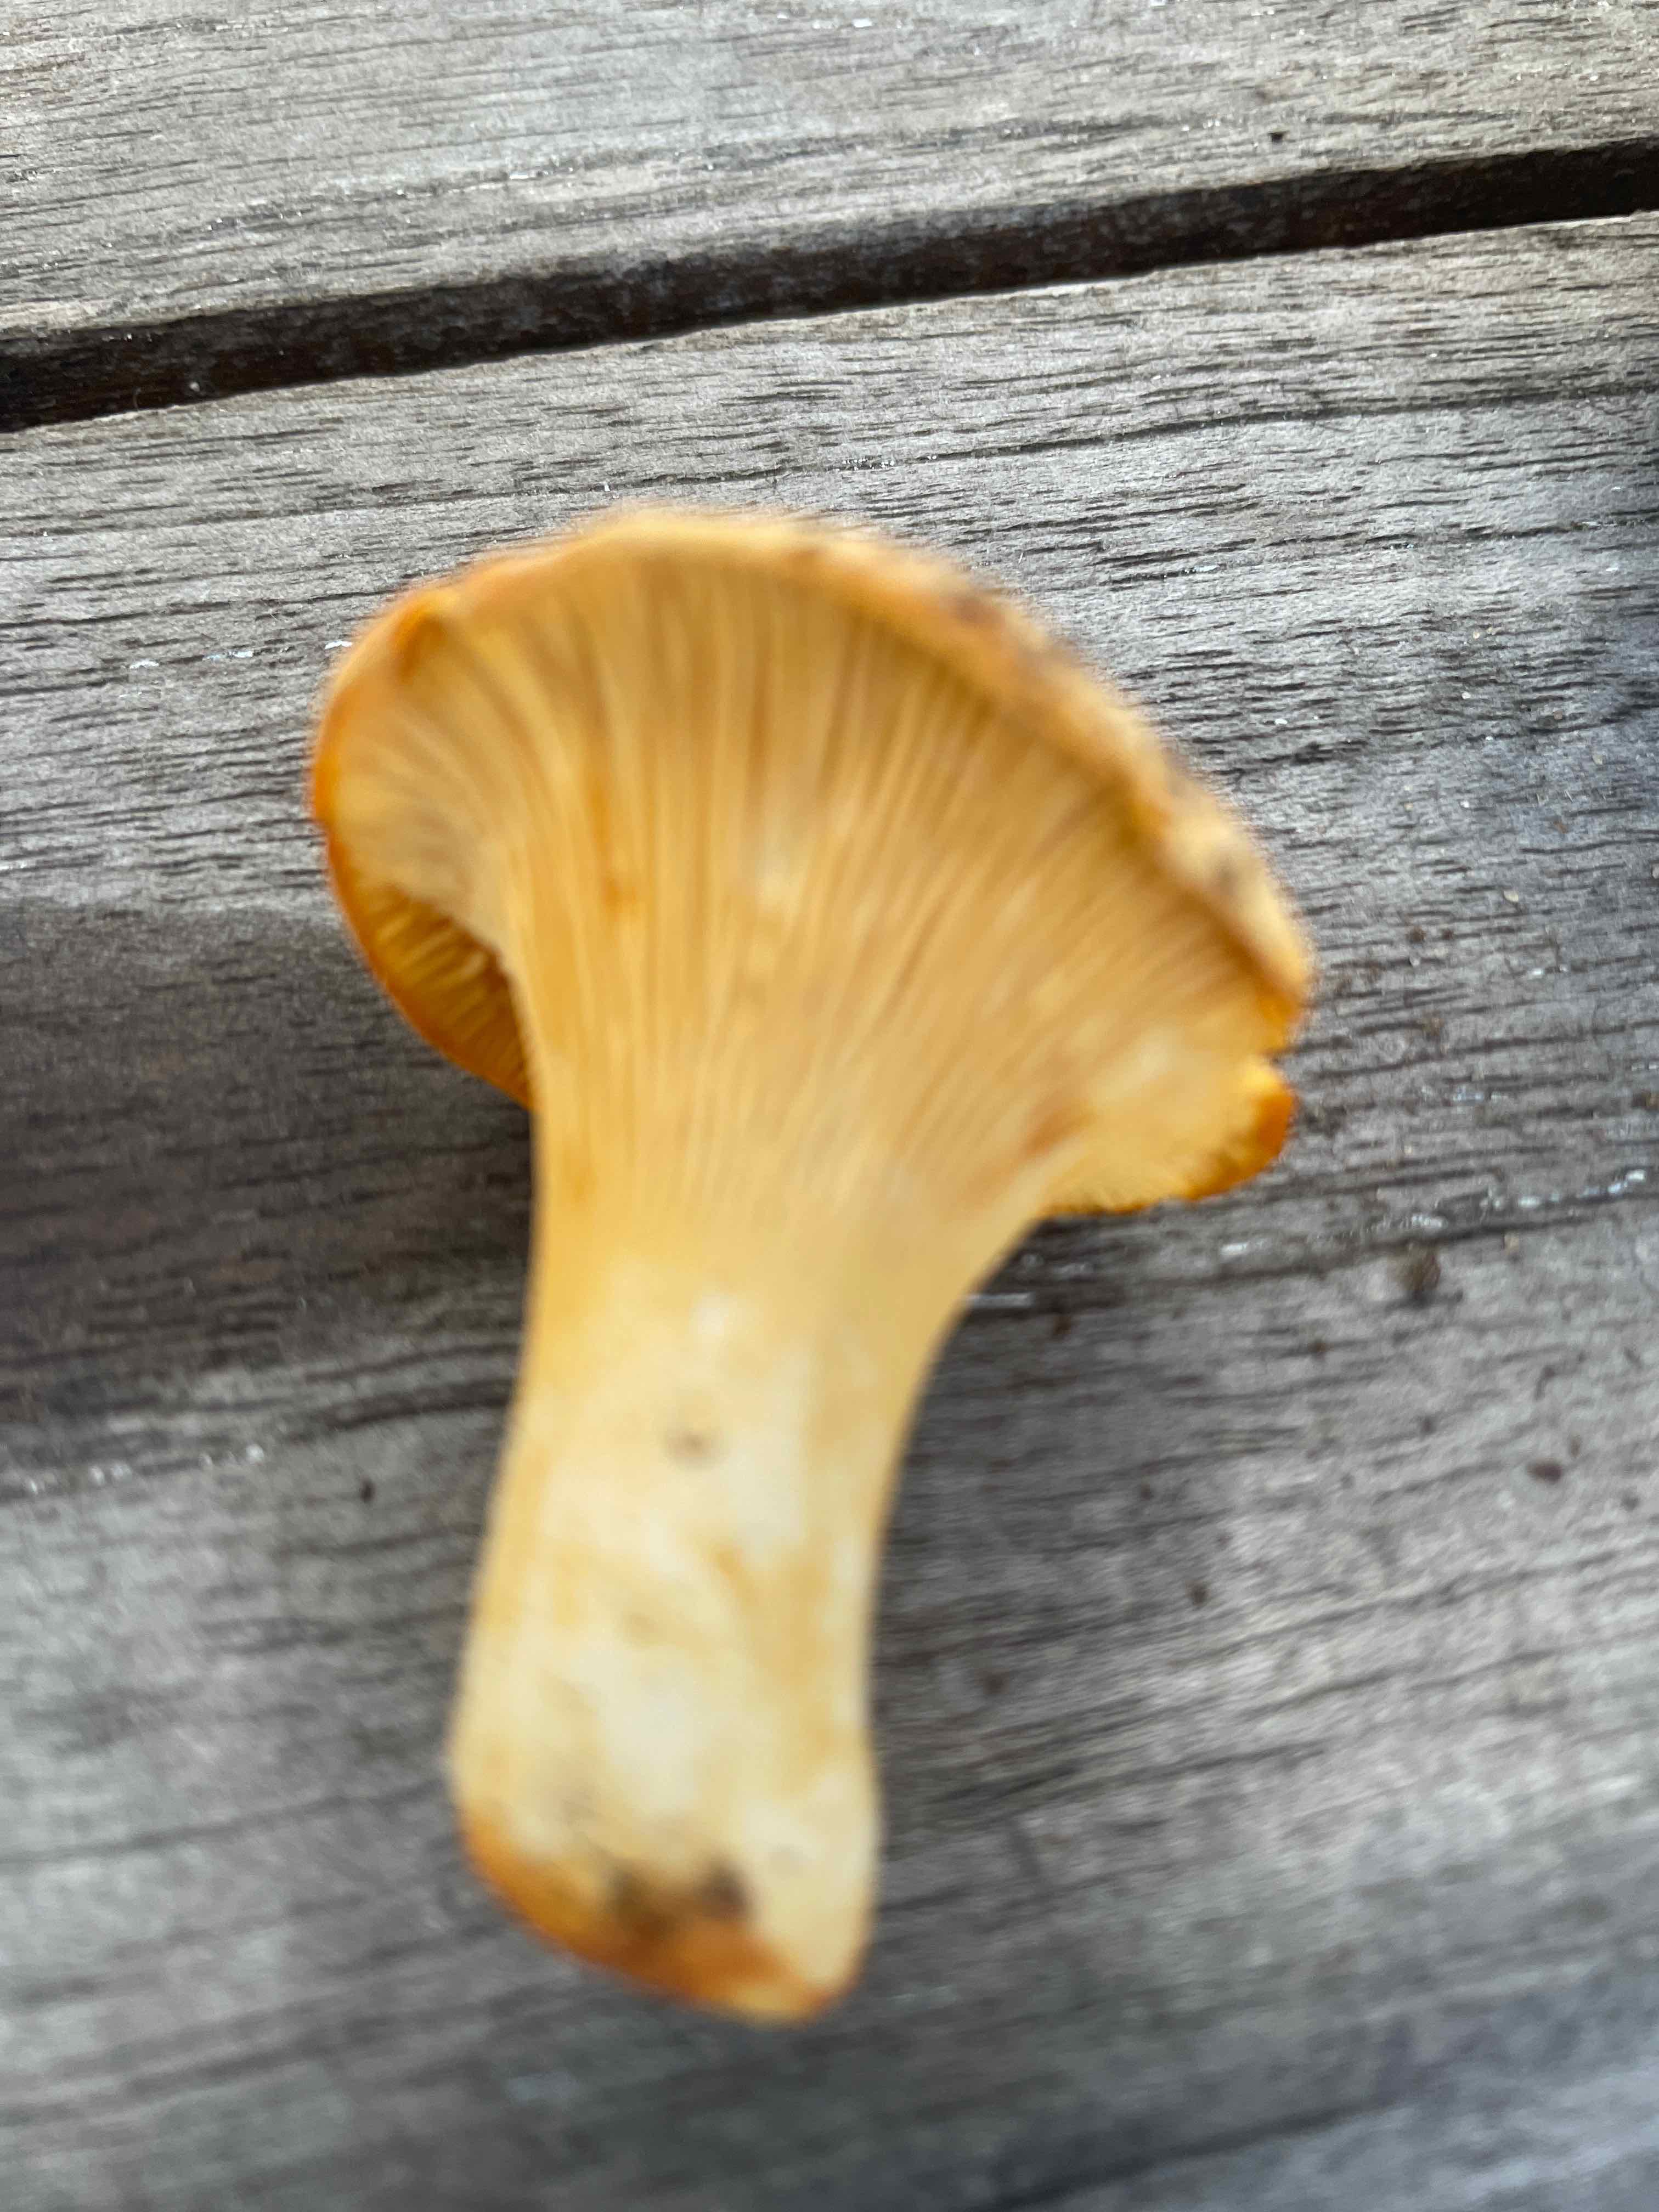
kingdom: Fungi
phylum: Basidiomycota
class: Agaricomycetes
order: Cantharellales
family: Hydnaceae
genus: Cantharellus
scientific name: Cantharellus pallens
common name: bleg kantarel
